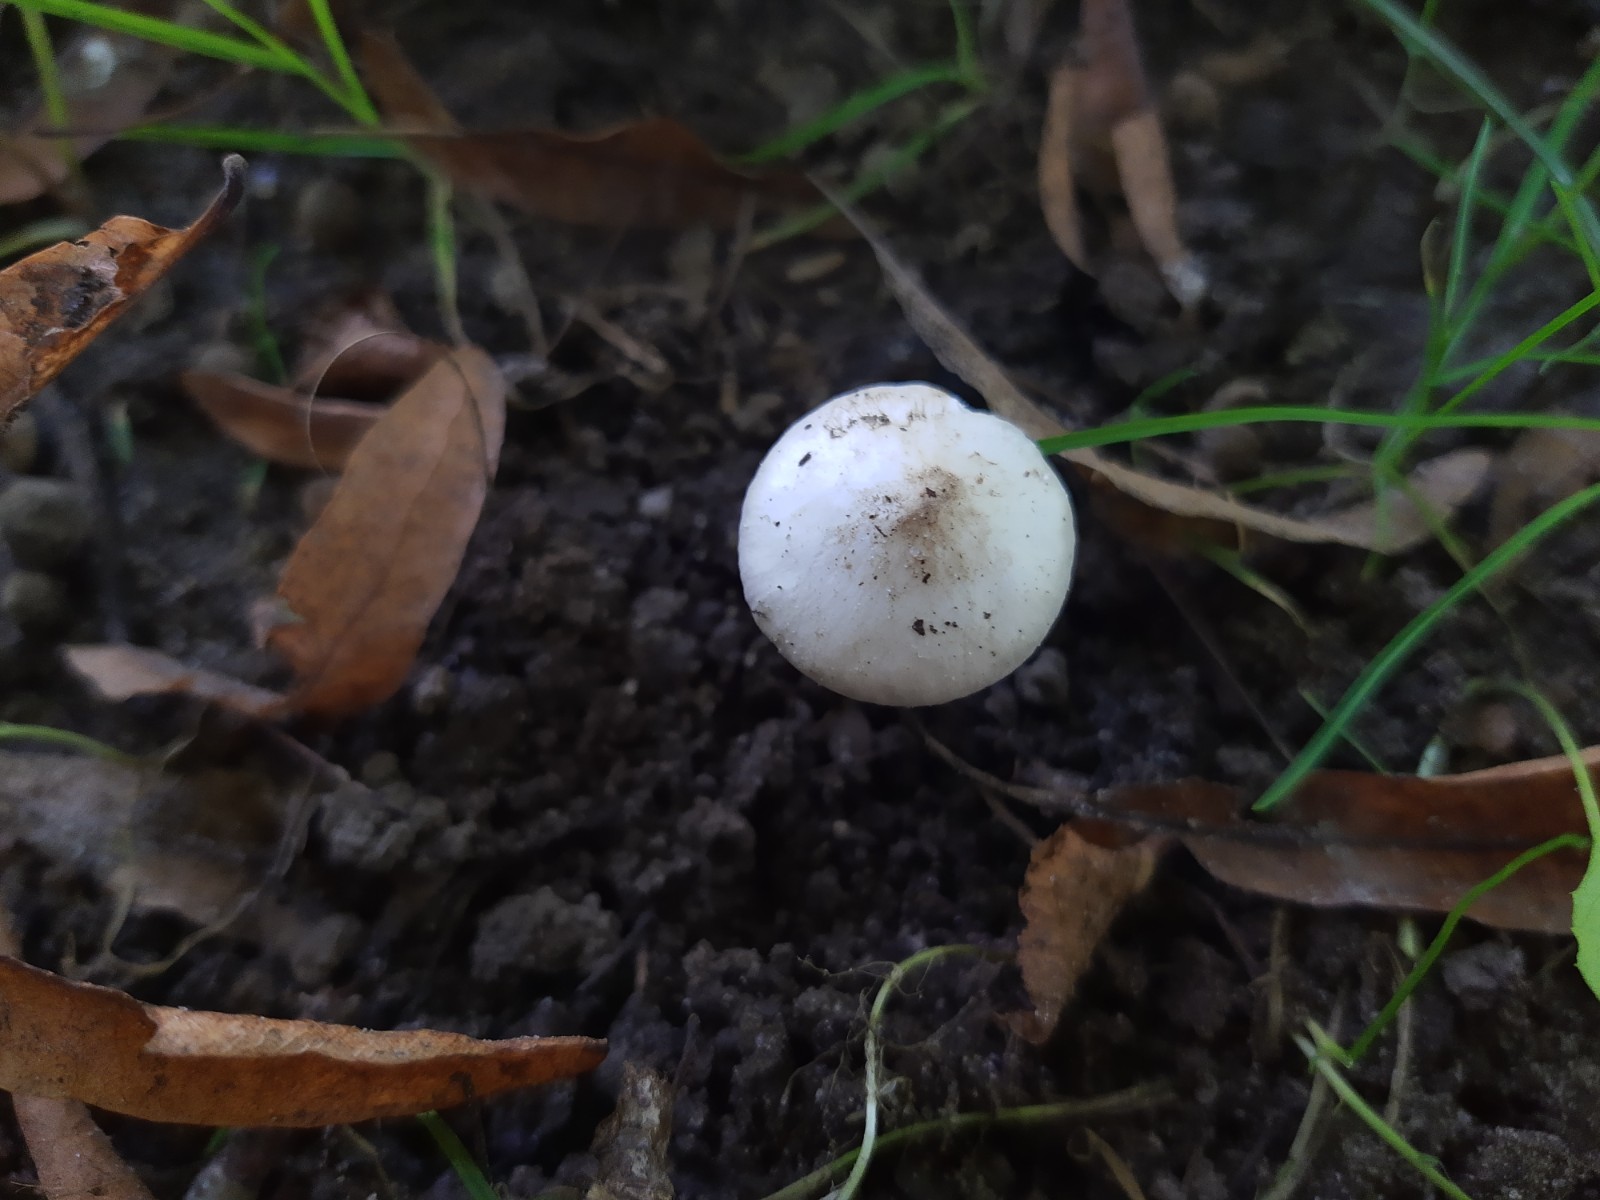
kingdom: Fungi
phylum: Basidiomycota
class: Agaricomycetes
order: Agaricales
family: Inocybaceae
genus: Inocybe
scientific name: Inocybe
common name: almindelig trævlhat
